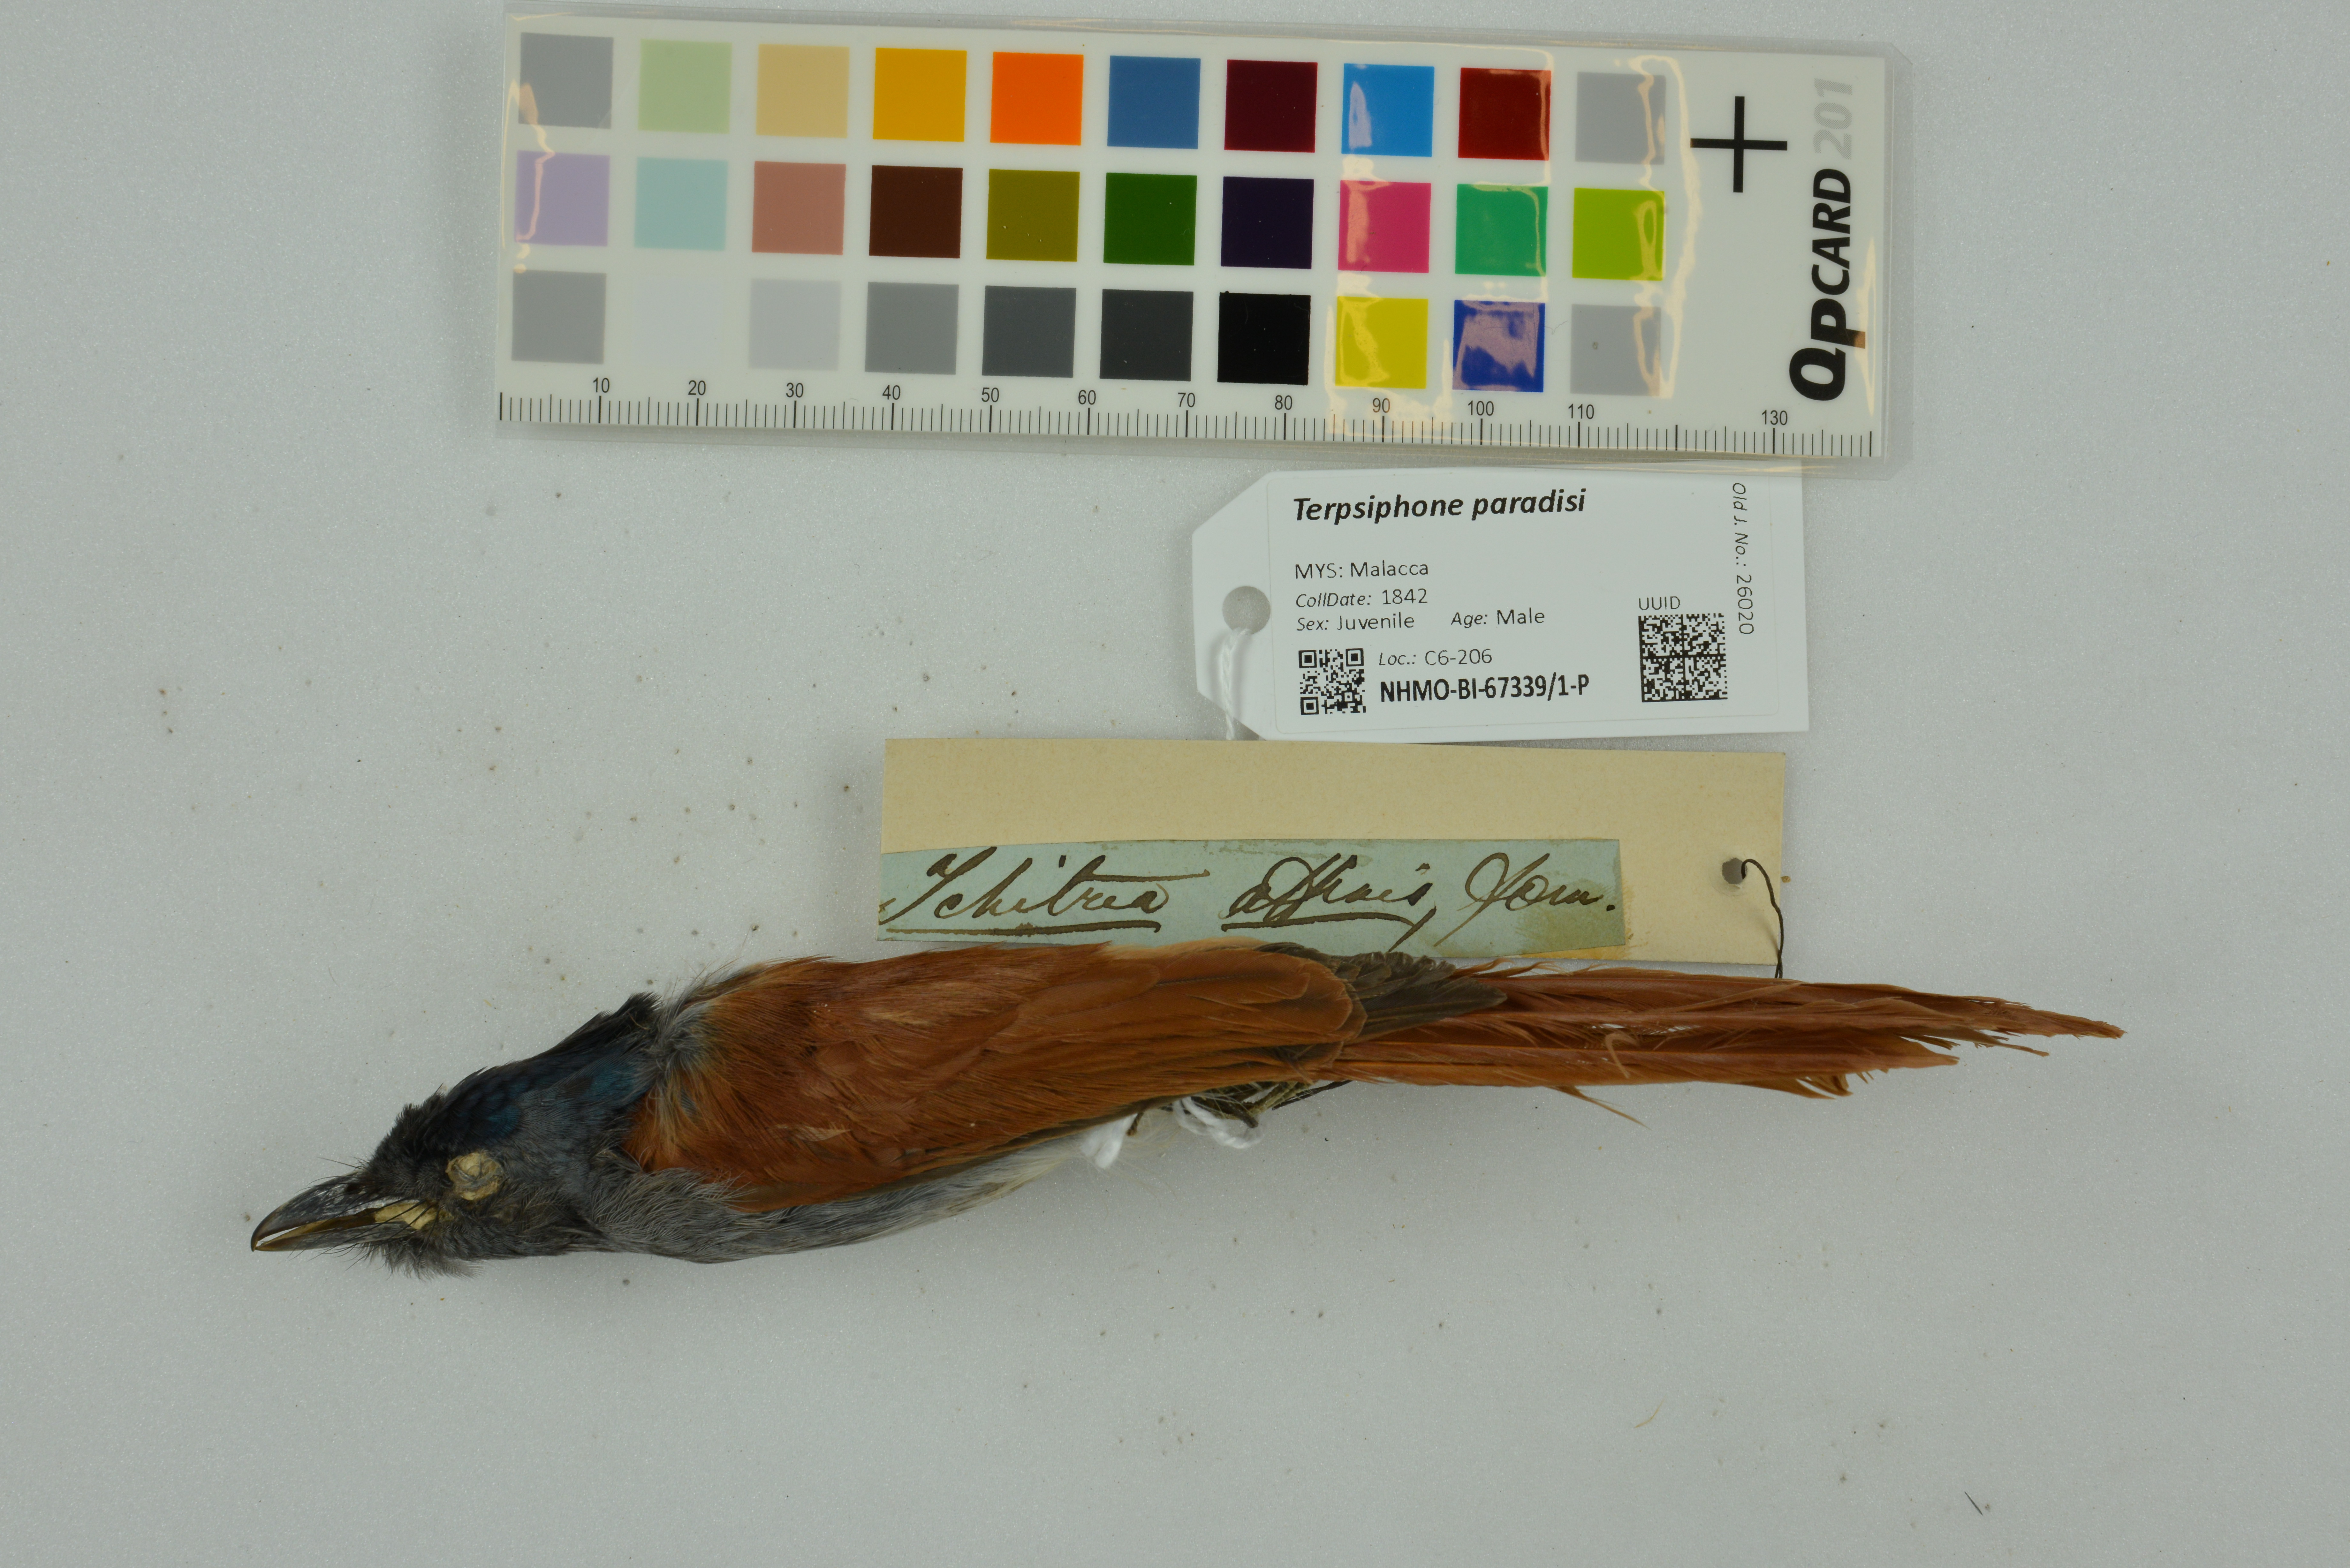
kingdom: Animalia
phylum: Chordata
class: Aves
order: Passeriformes
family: Monarchidae
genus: Terpsiphone
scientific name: Terpsiphone paradisi
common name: Indian paradise flycatcher
